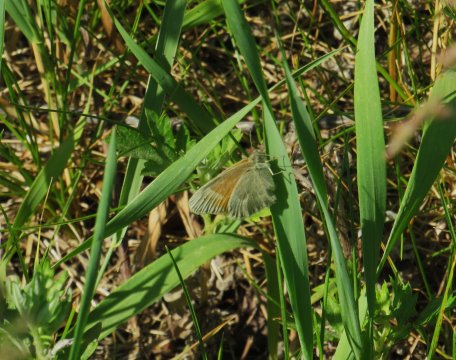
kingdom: Animalia
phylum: Arthropoda
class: Insecta
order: Lepidoptera
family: Nymphalidae
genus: Coenonympha
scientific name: Coenonympha tullia
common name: Large Heath
